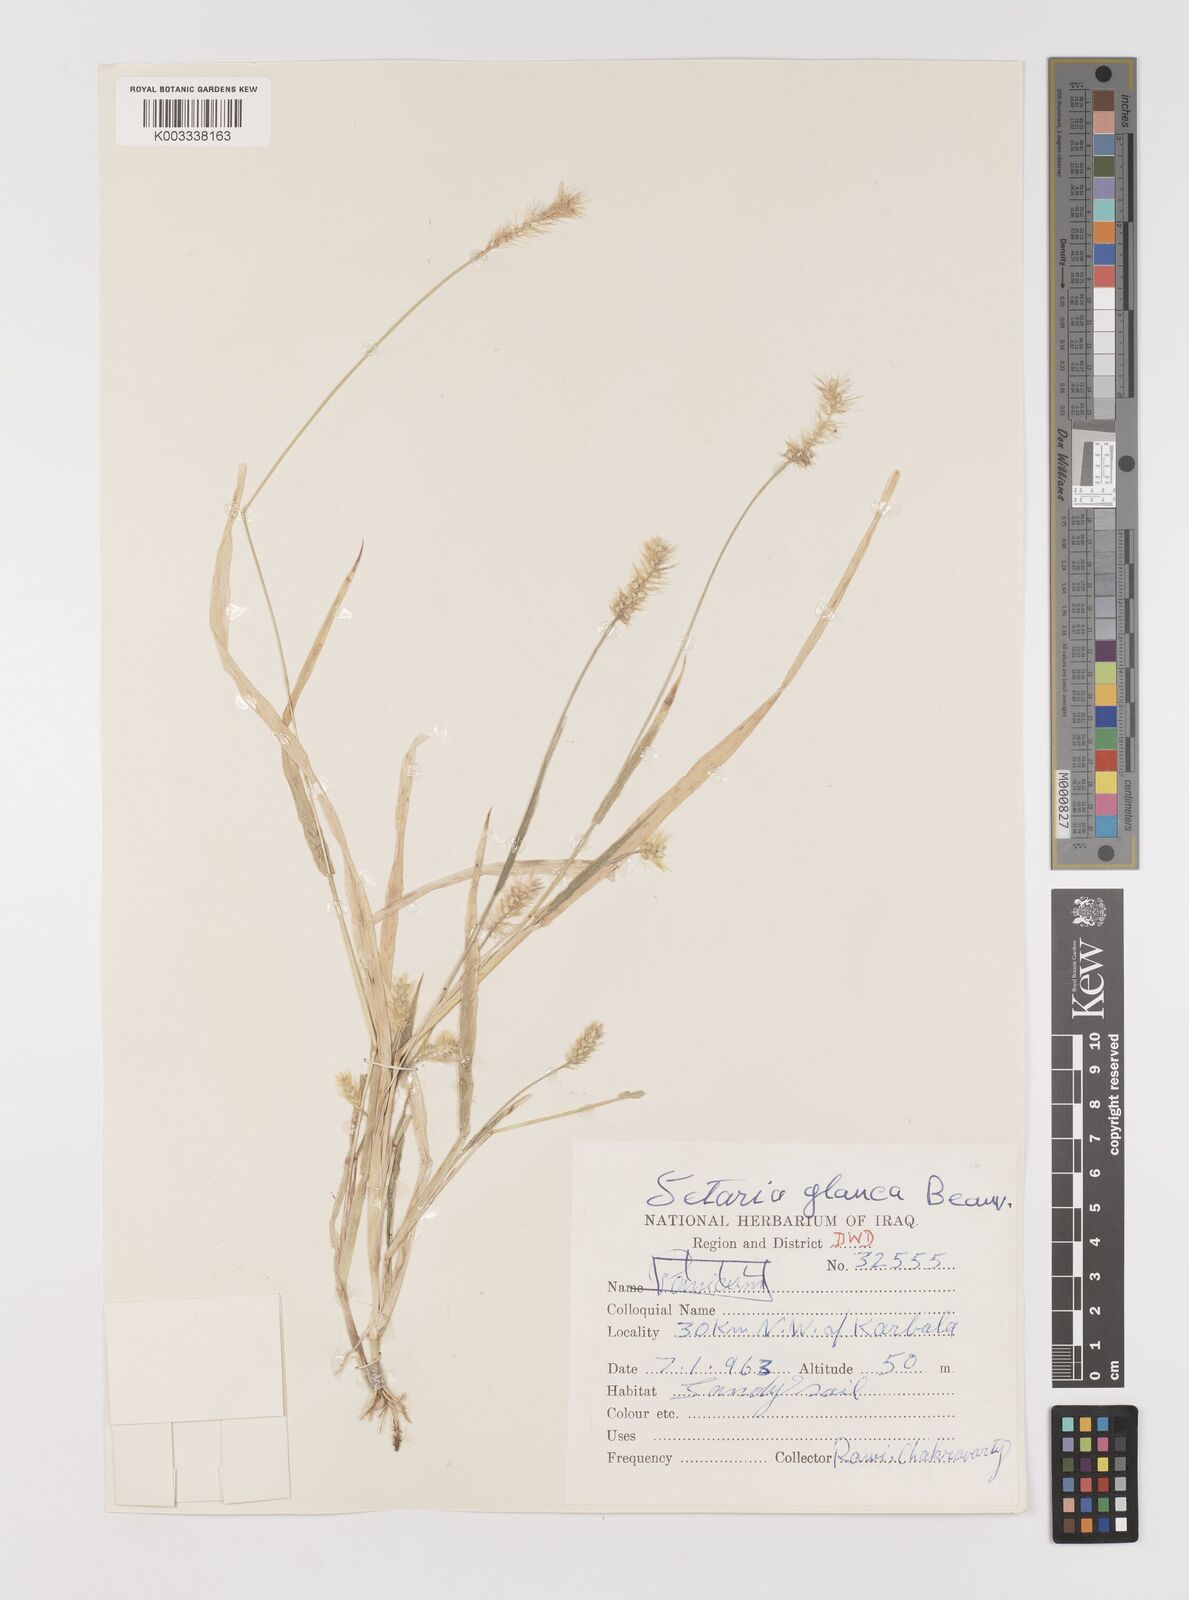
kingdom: Plantae
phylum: Tracheophyta
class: Liliopsida
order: Poales
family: Poaceae
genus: Setaria
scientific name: Setaria pumila
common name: Yellow bristle-grass
